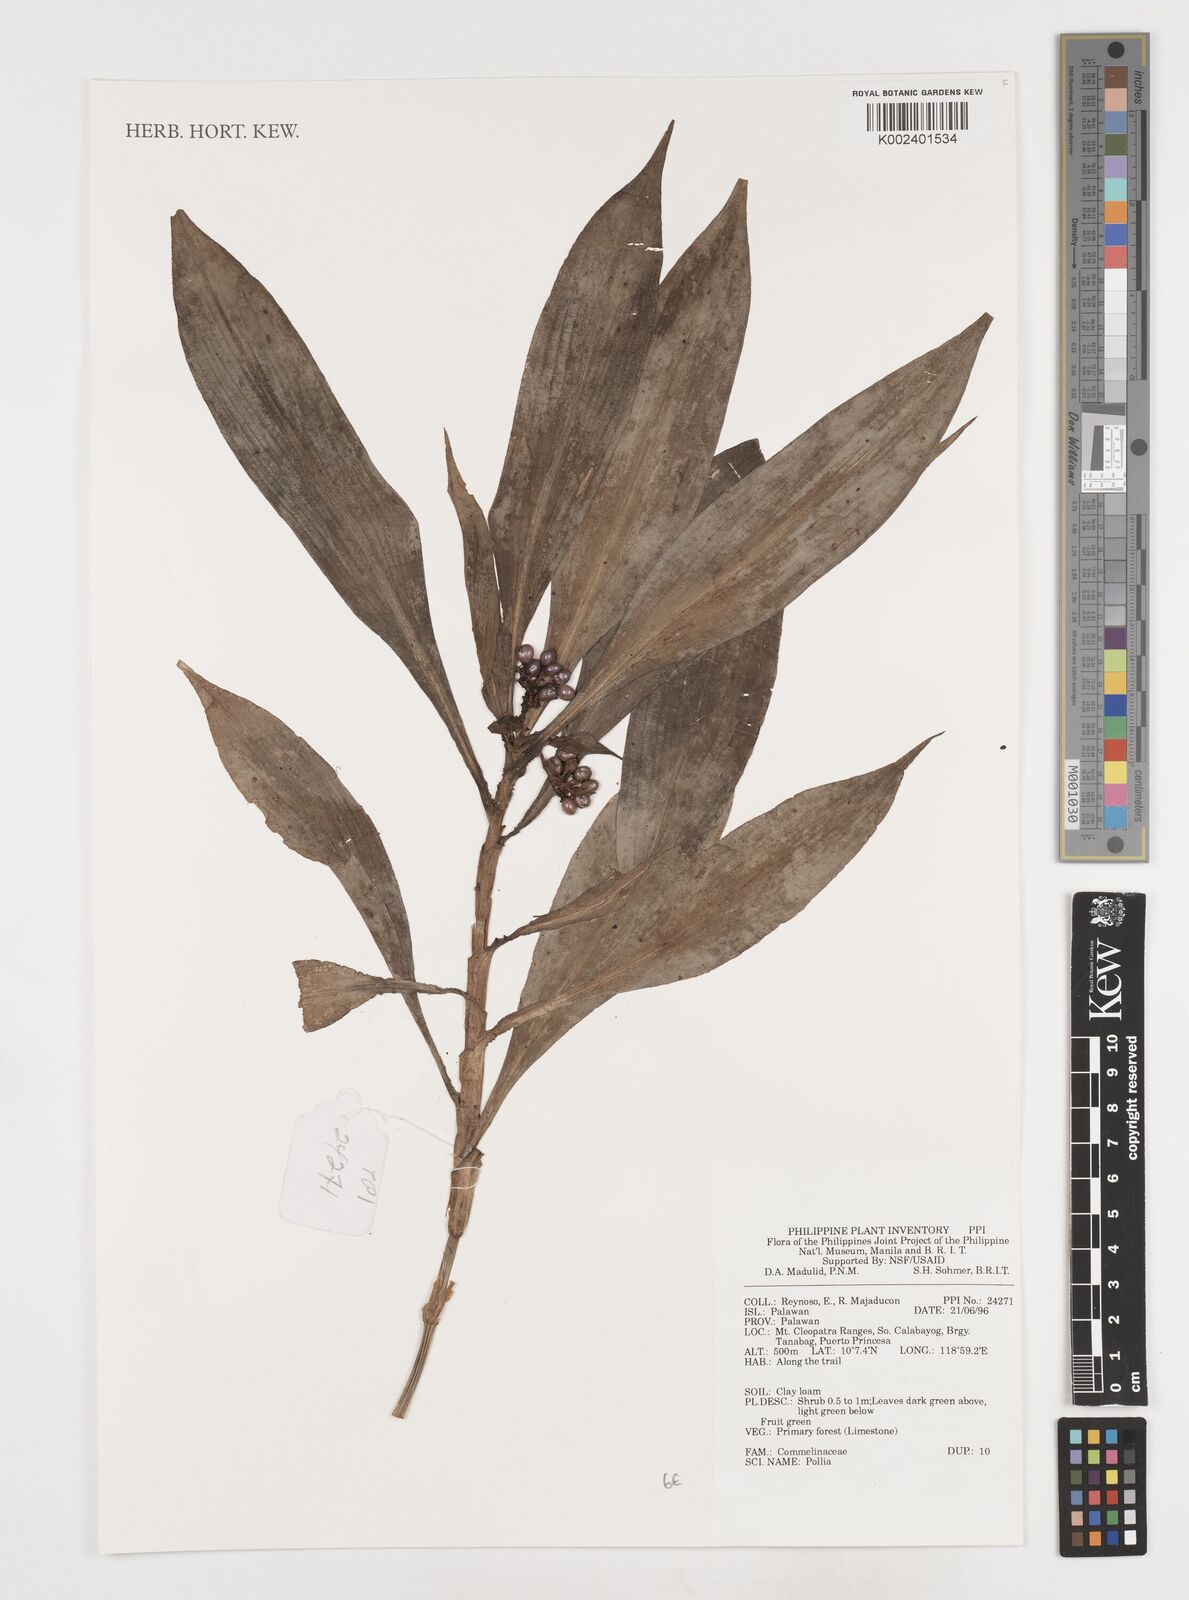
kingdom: Plantae
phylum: Tracheophyta
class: Liliopsida
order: Commelinales
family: Commelinaceae
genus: Pollia
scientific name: Pollia
